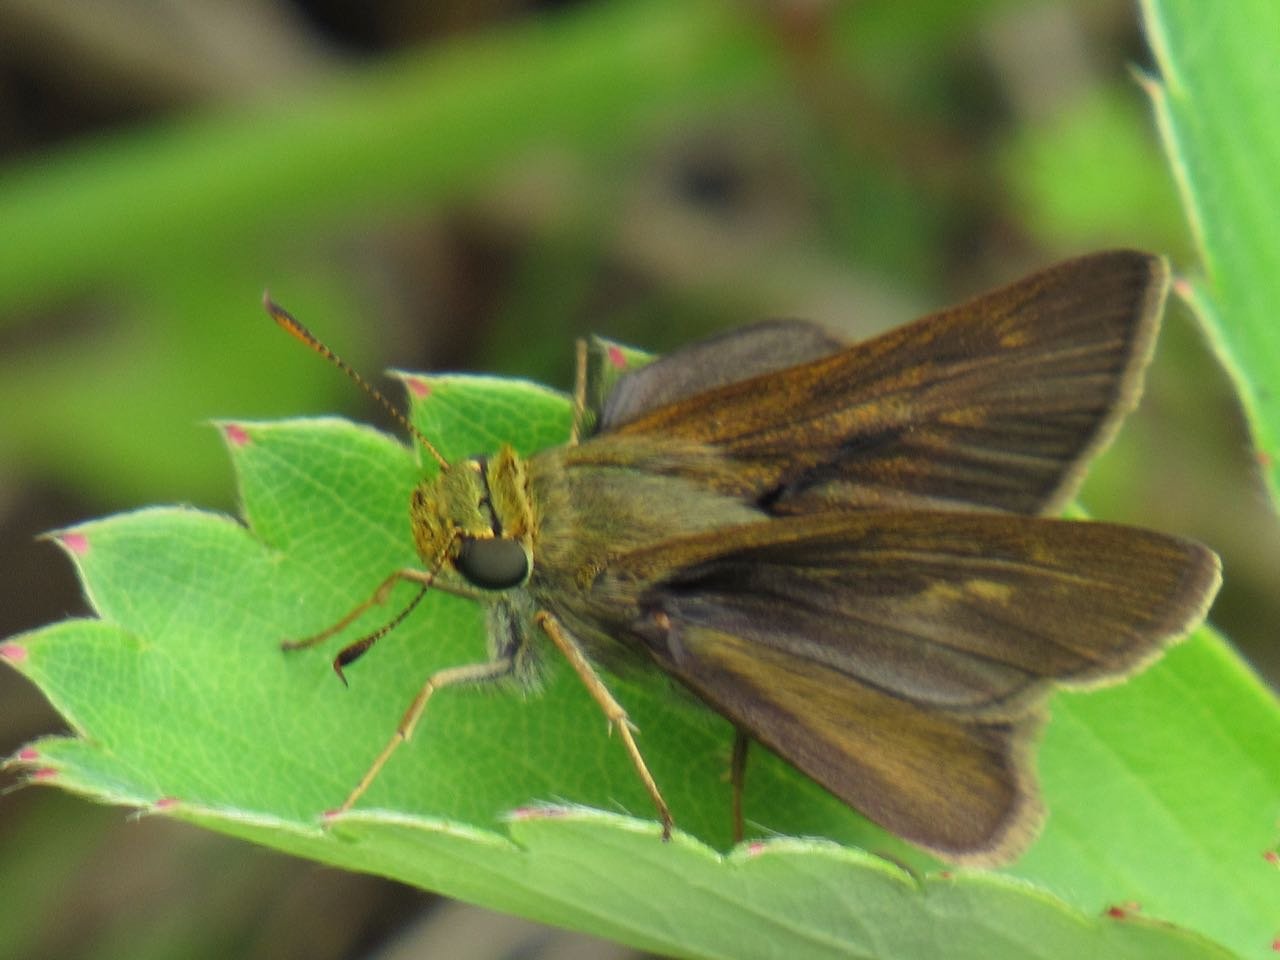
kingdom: Animalia
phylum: Arthropoda
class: Insecta
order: Lepidoptera
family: Hesperiidae
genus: Polites
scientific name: Polites egeremet
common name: Northern Broken-Dash
